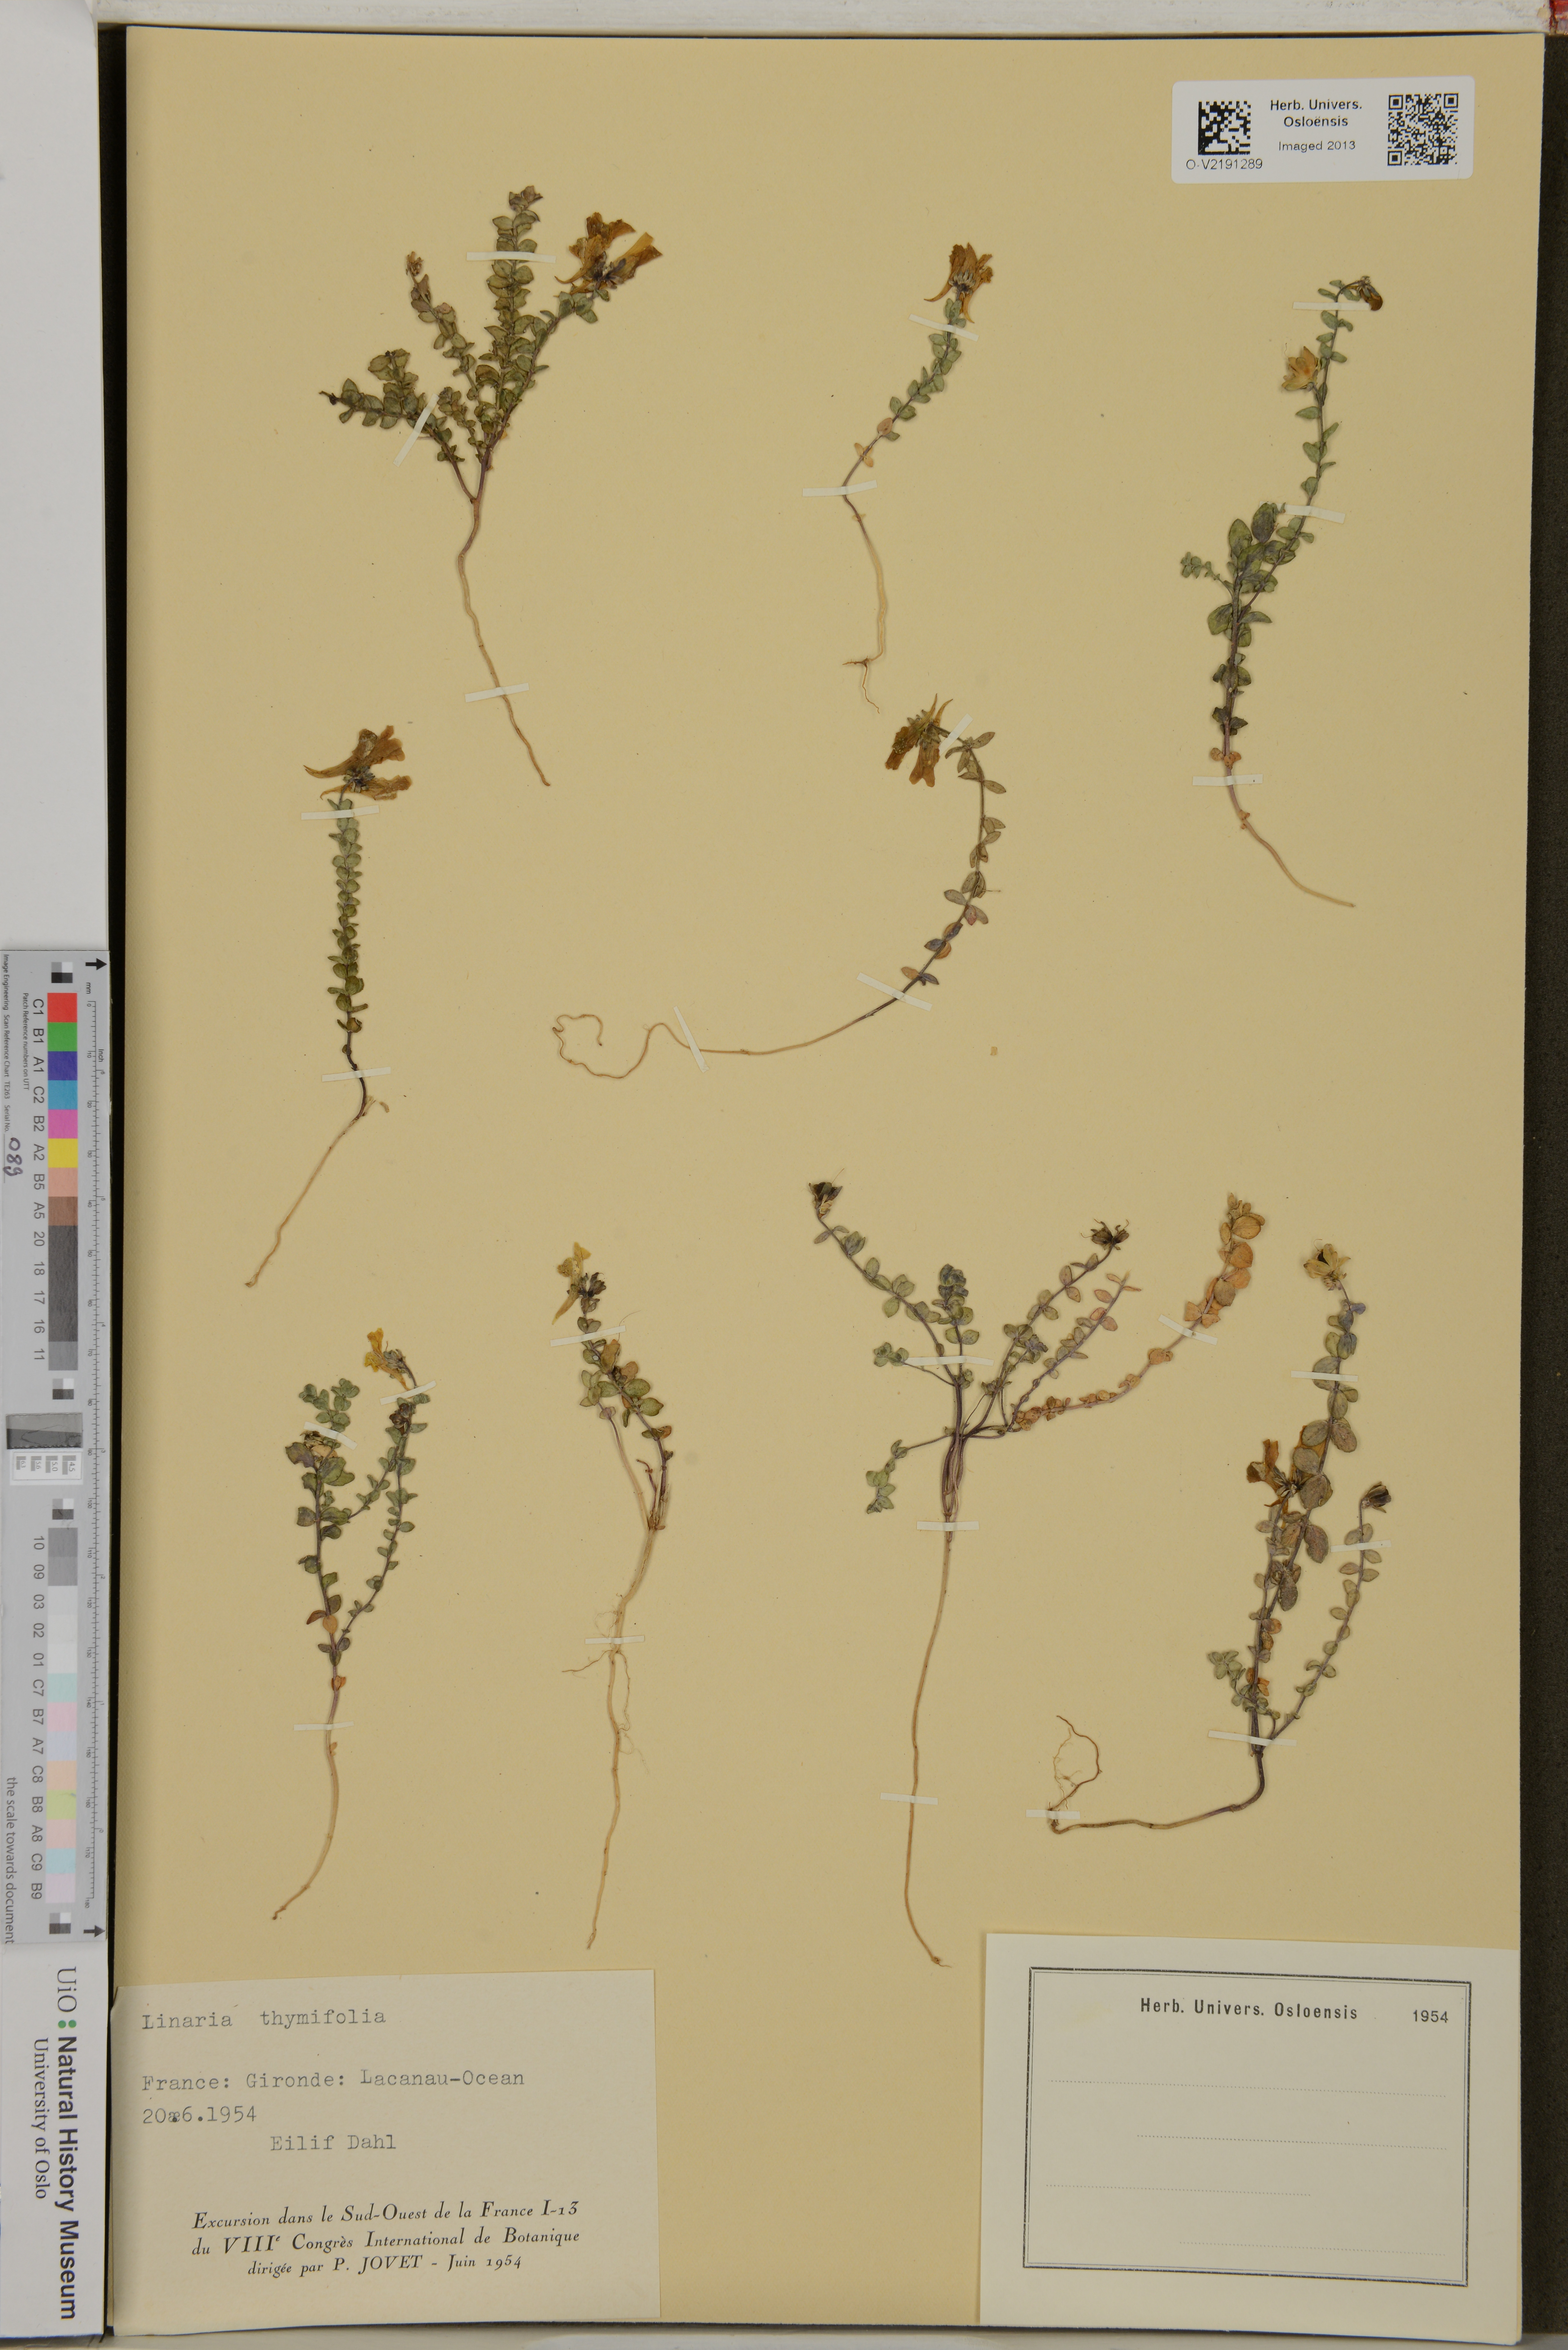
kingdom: Plantae
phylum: Tracheophyta
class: Magnoliopsida
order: Lamiales
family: Plantaginaceae
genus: Linaria
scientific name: Linaria thymifolia
